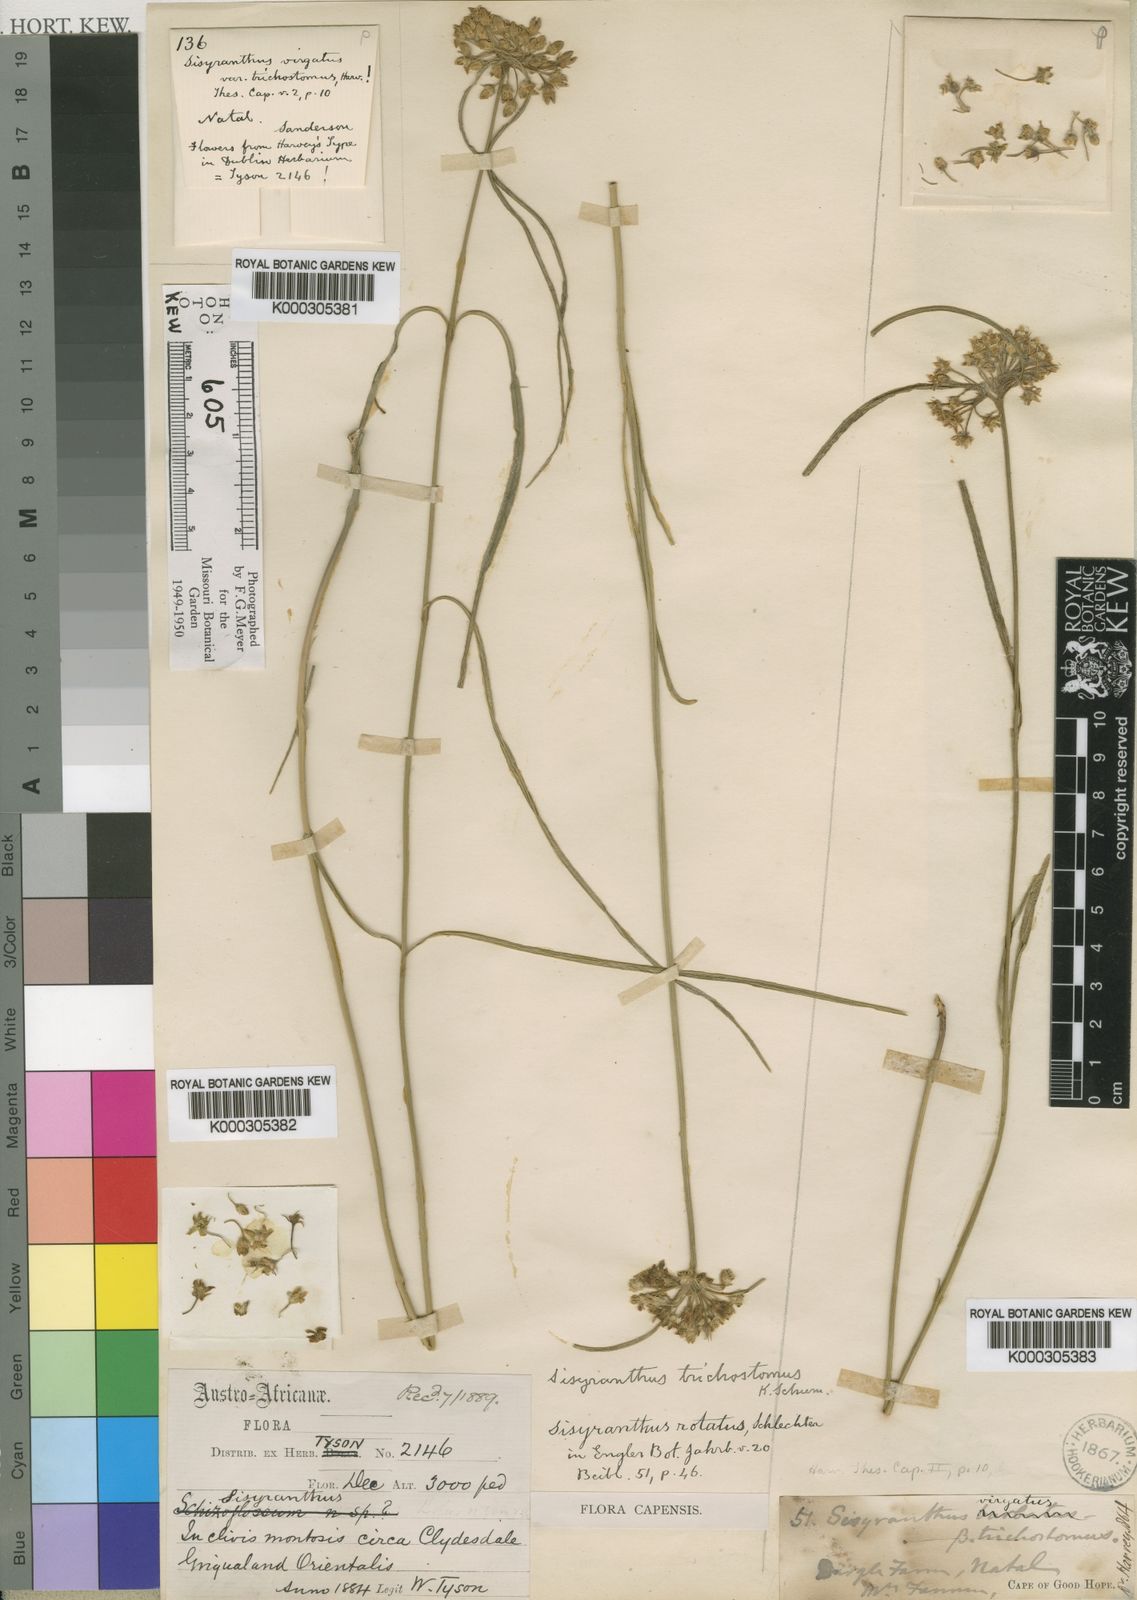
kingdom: Plantae
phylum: Tracheophyta
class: Magnoliopsida
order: Gentianales
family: Apocynaceae
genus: Sisyranthus
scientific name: Sisyranthus trichostomus
